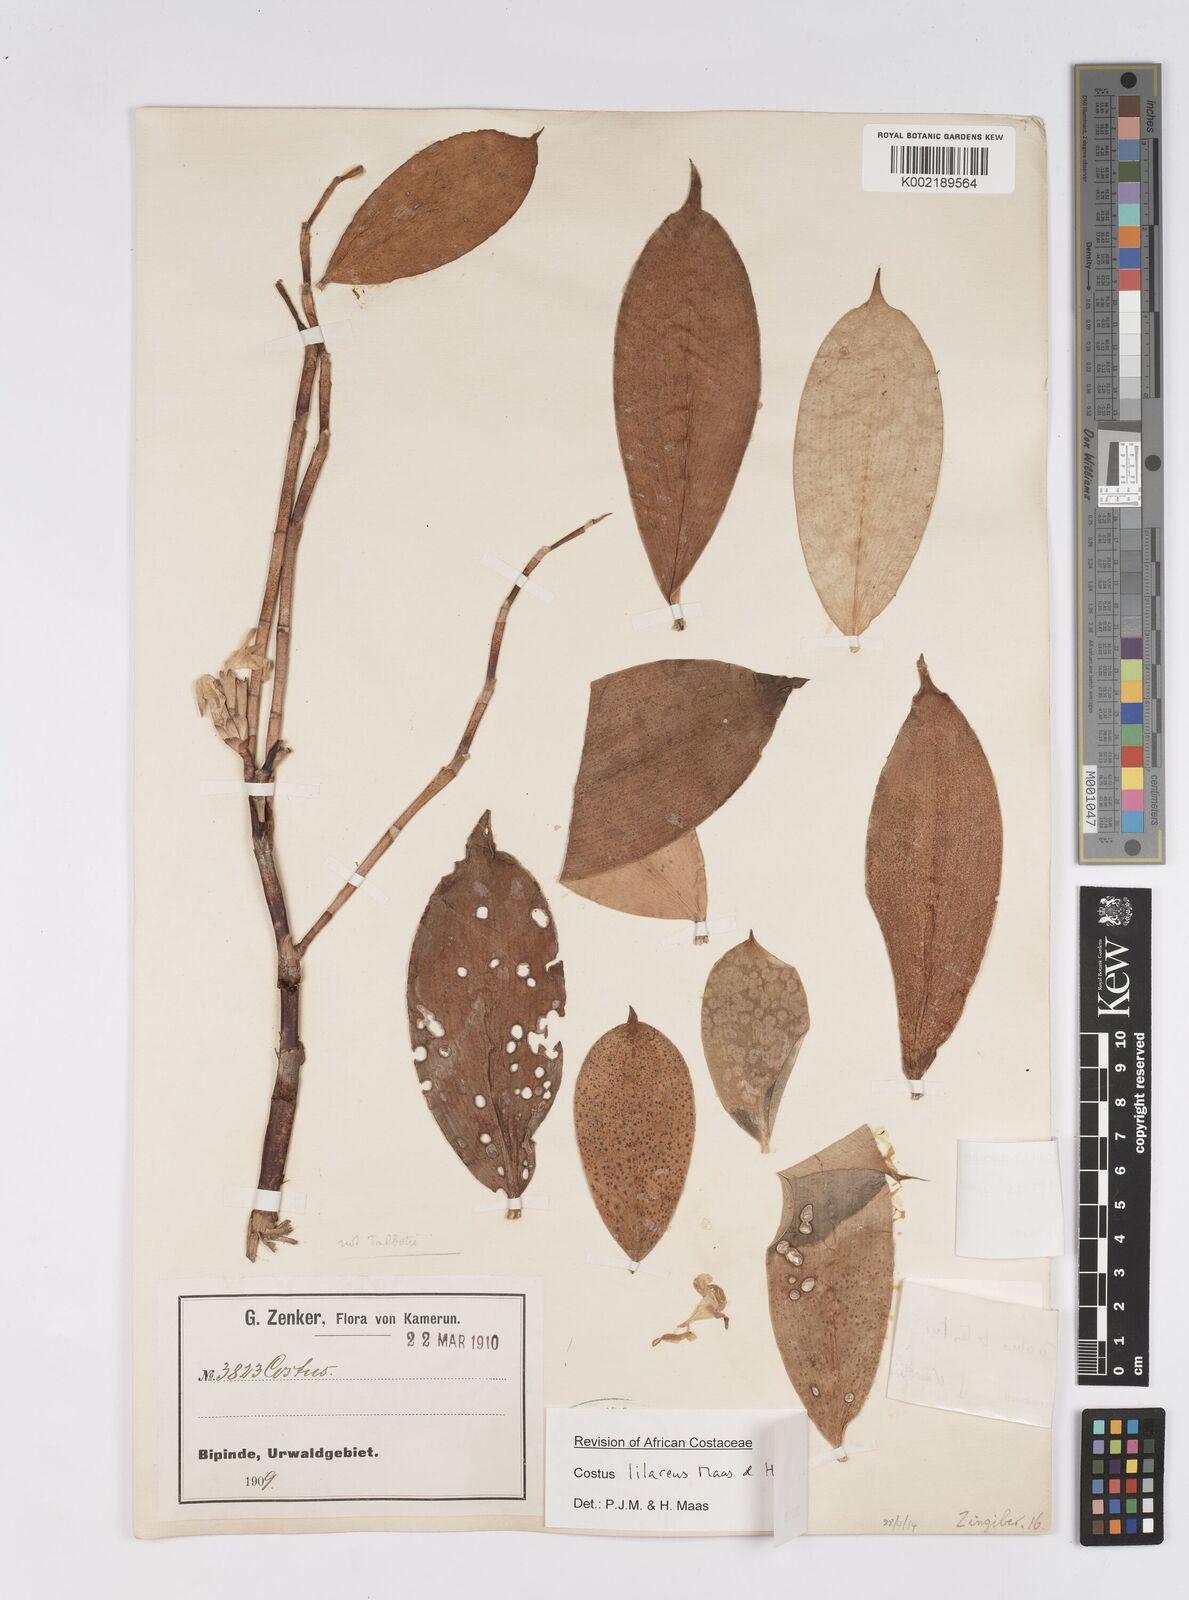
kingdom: Plantae
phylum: Tracheophyta
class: Liliopsida
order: Zingiberales
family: Costaceae
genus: Costus
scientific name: Costus lilaceus
